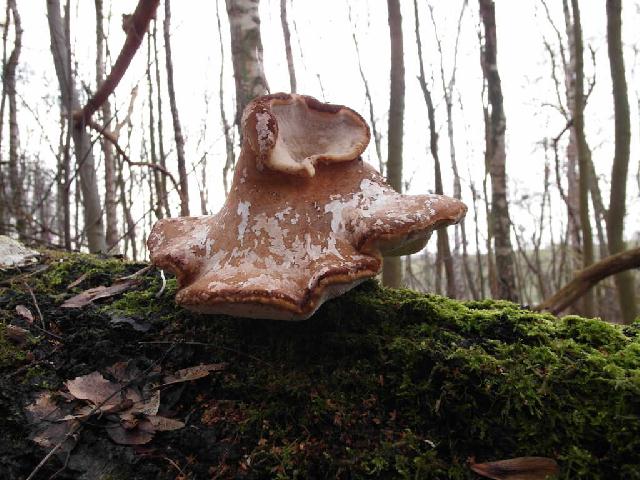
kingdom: Fungi
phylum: Basidiomycota
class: Agaricomycetes
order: Polyporales
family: Fomitopsidaceae
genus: Fomitopsis
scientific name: Fomitopsis betulina
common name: birkeporesvamp
